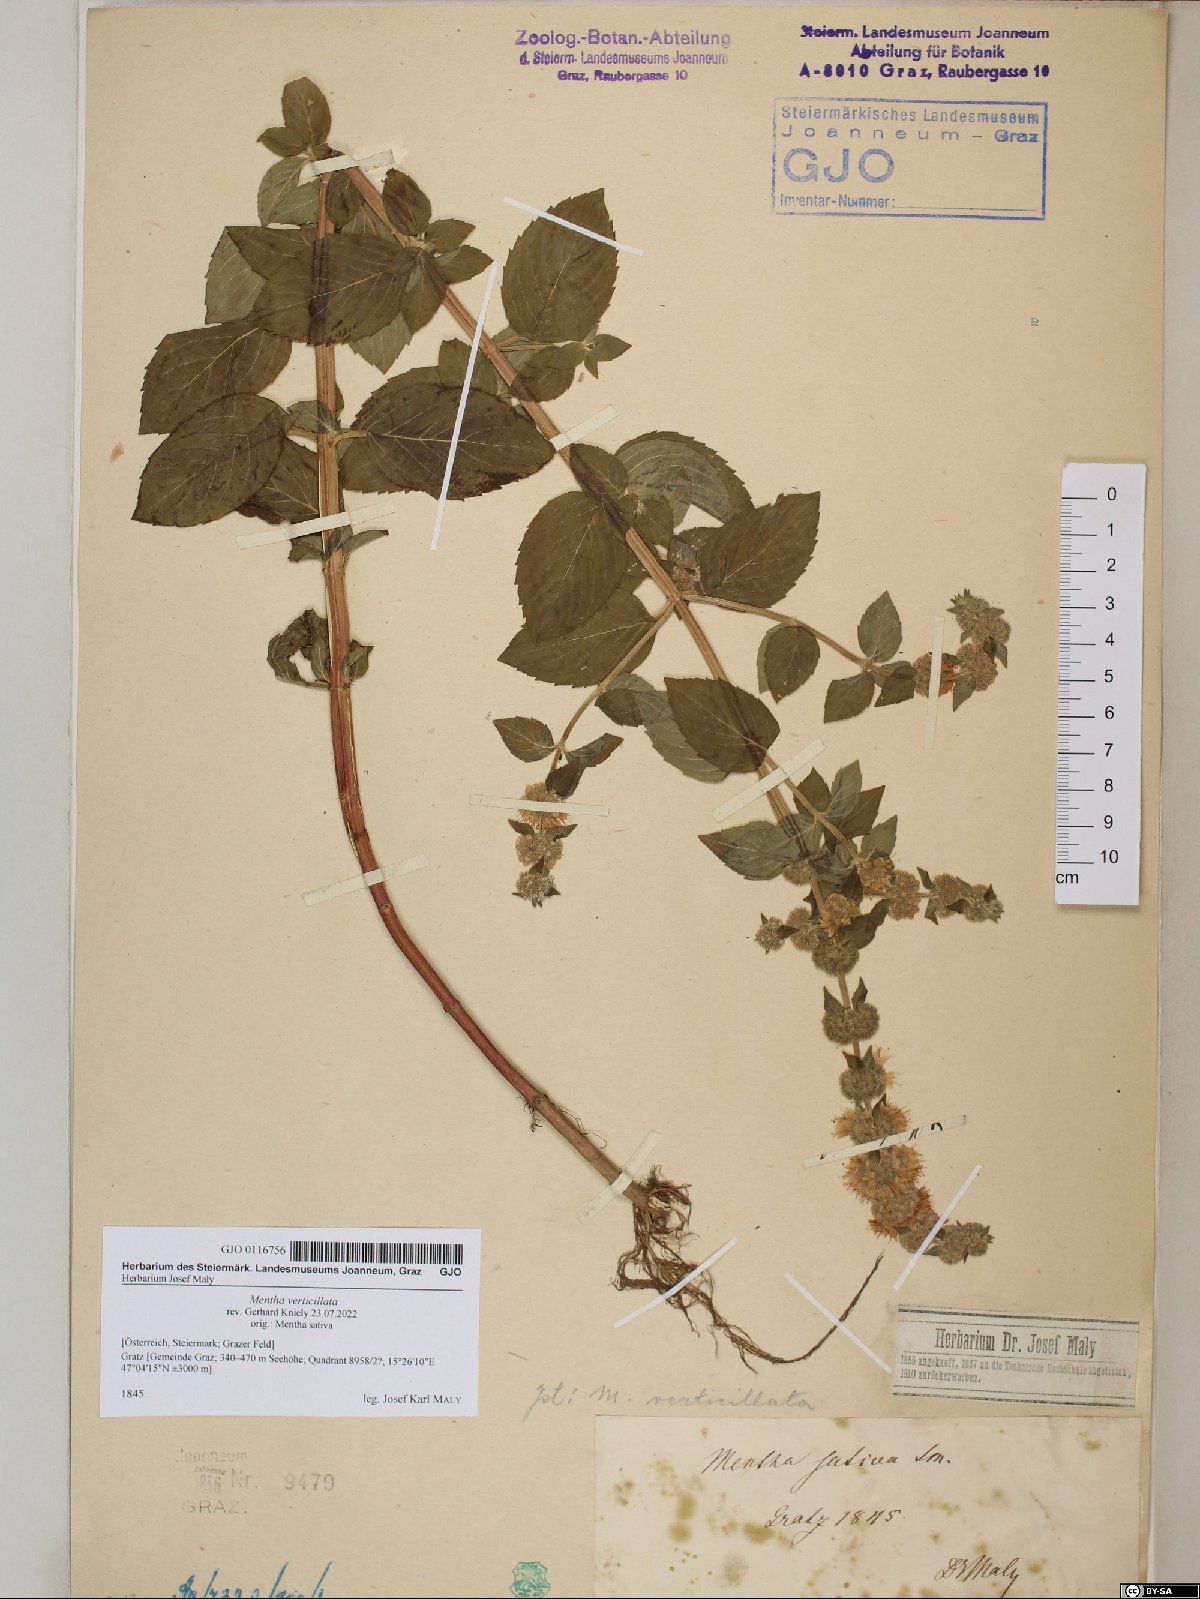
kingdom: Plantae
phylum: Tracheophyta
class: Magnoliopsida
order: Lamiales
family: Lamiaceae
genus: Mentha
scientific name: Mentha verticillata
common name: Mint
